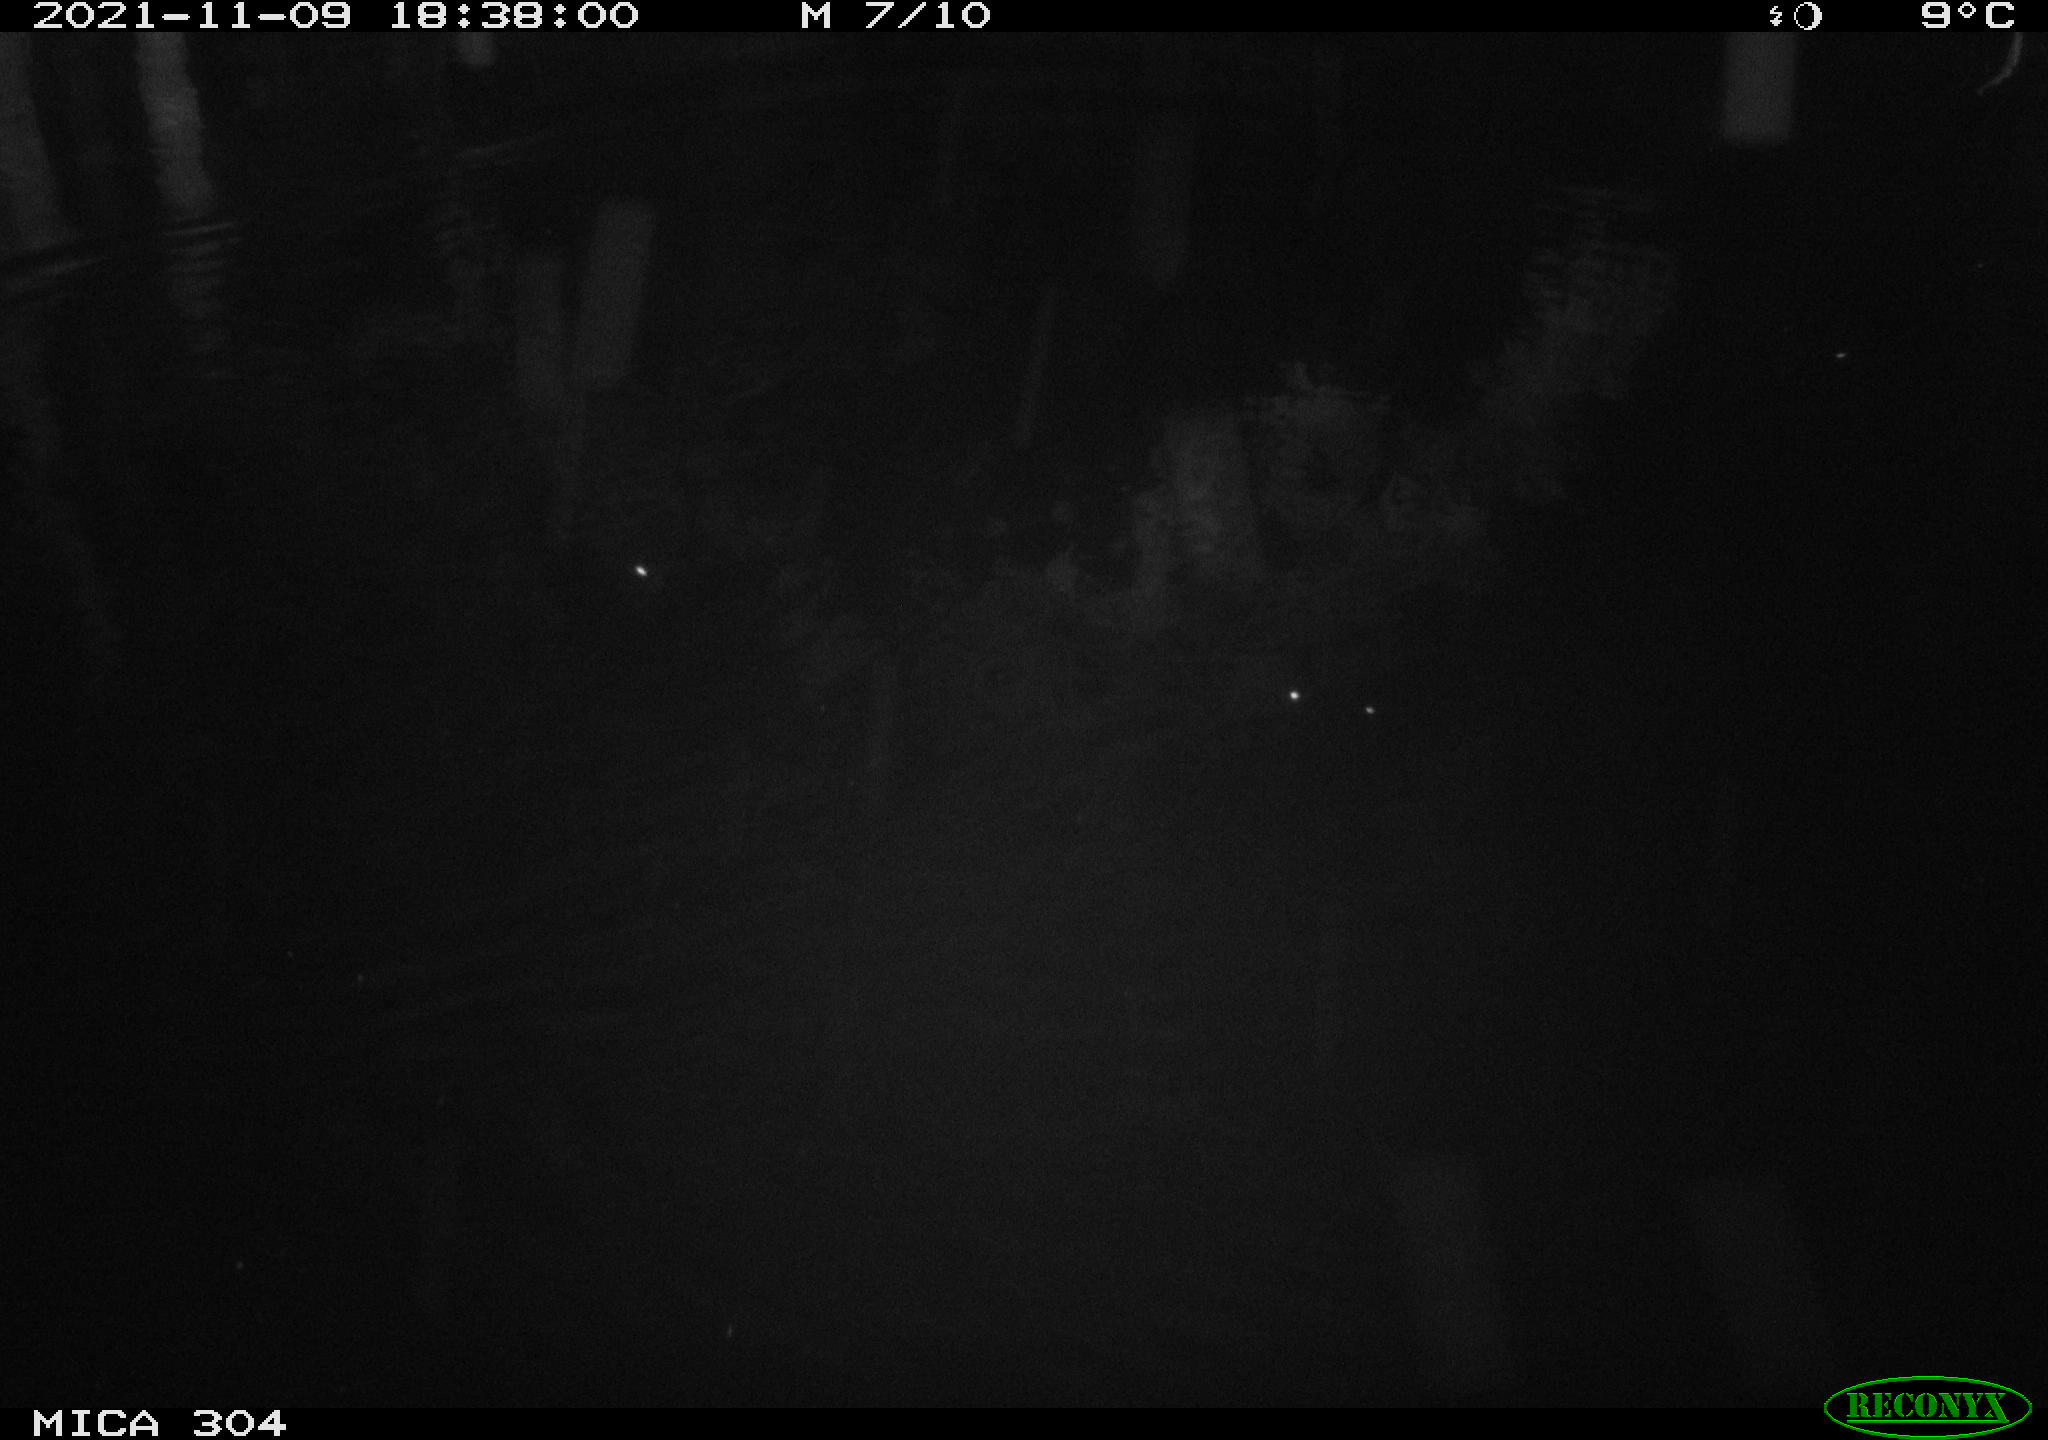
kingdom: Animalia
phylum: Chordata
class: Mammalia
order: Rodentia
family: Muridae
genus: Rattus
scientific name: Rattus norvegicus
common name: Brown rat
